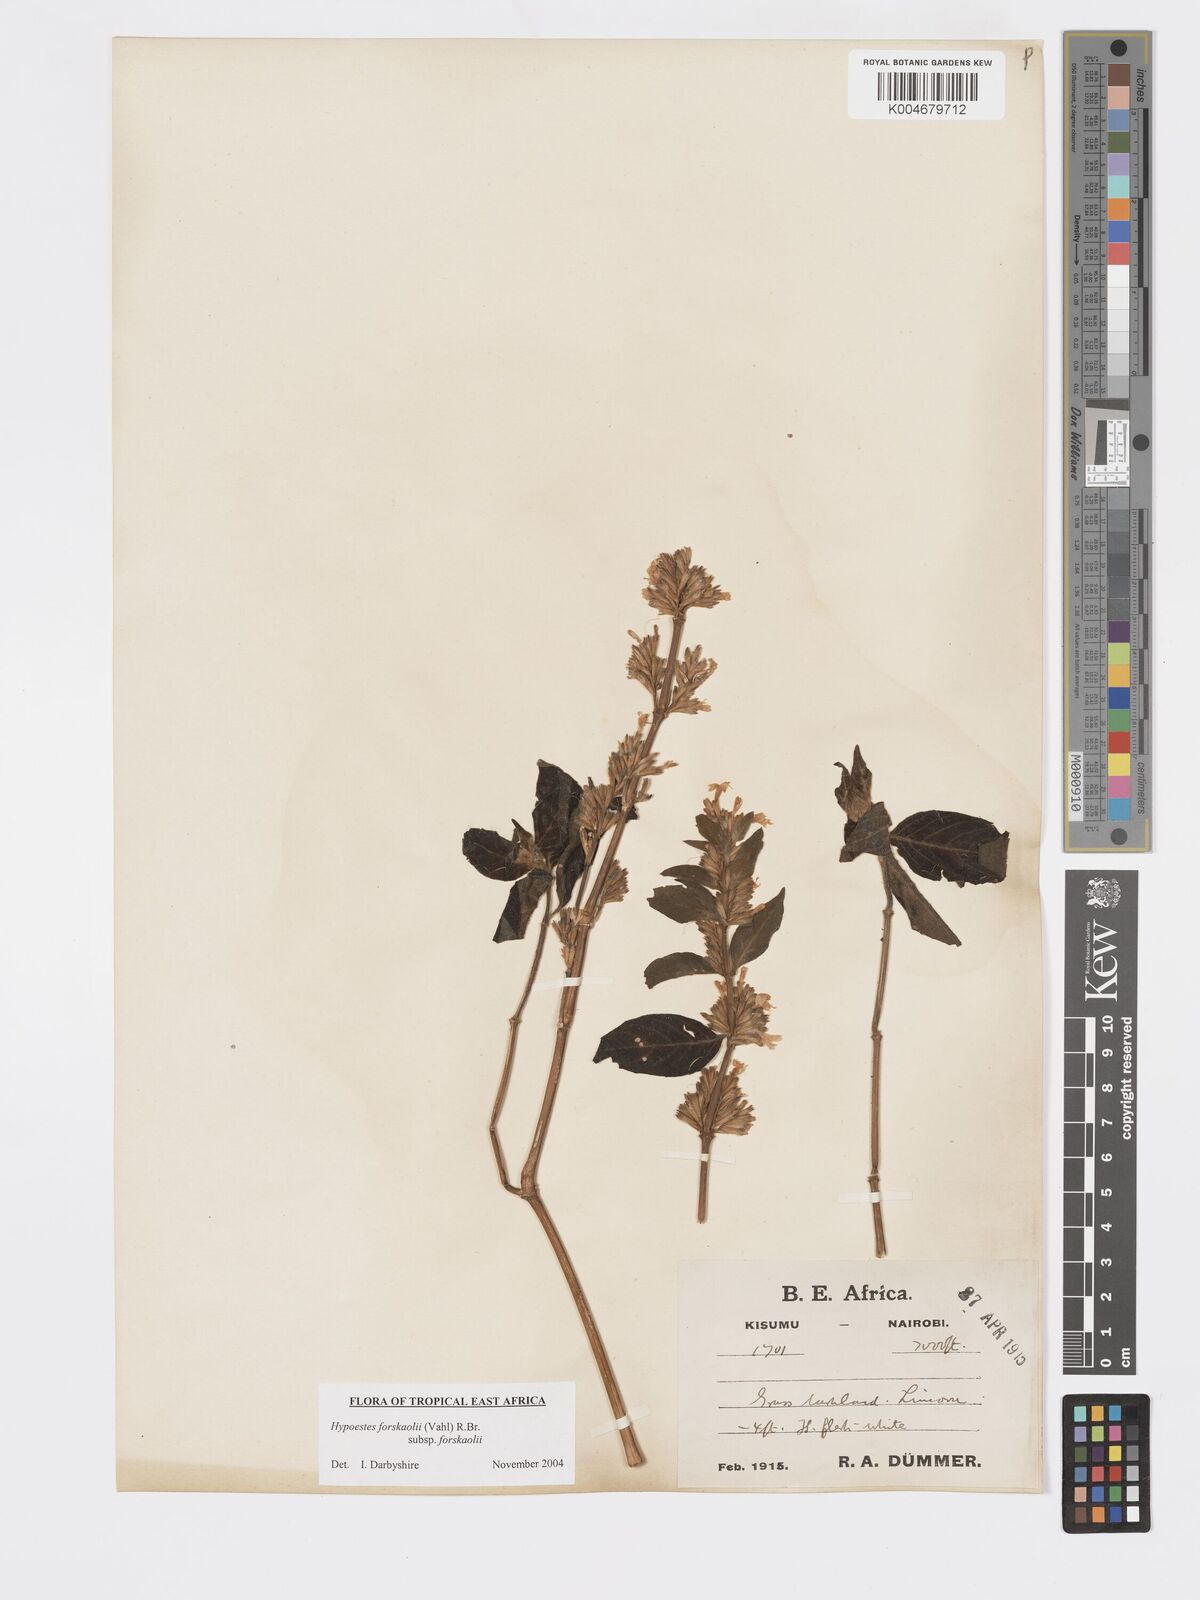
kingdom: Plantae
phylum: Tracheophyta
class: Magnoliopsida
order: Lamiales
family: Acanthaceae
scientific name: Acanthaceae
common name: Acanthaceae
